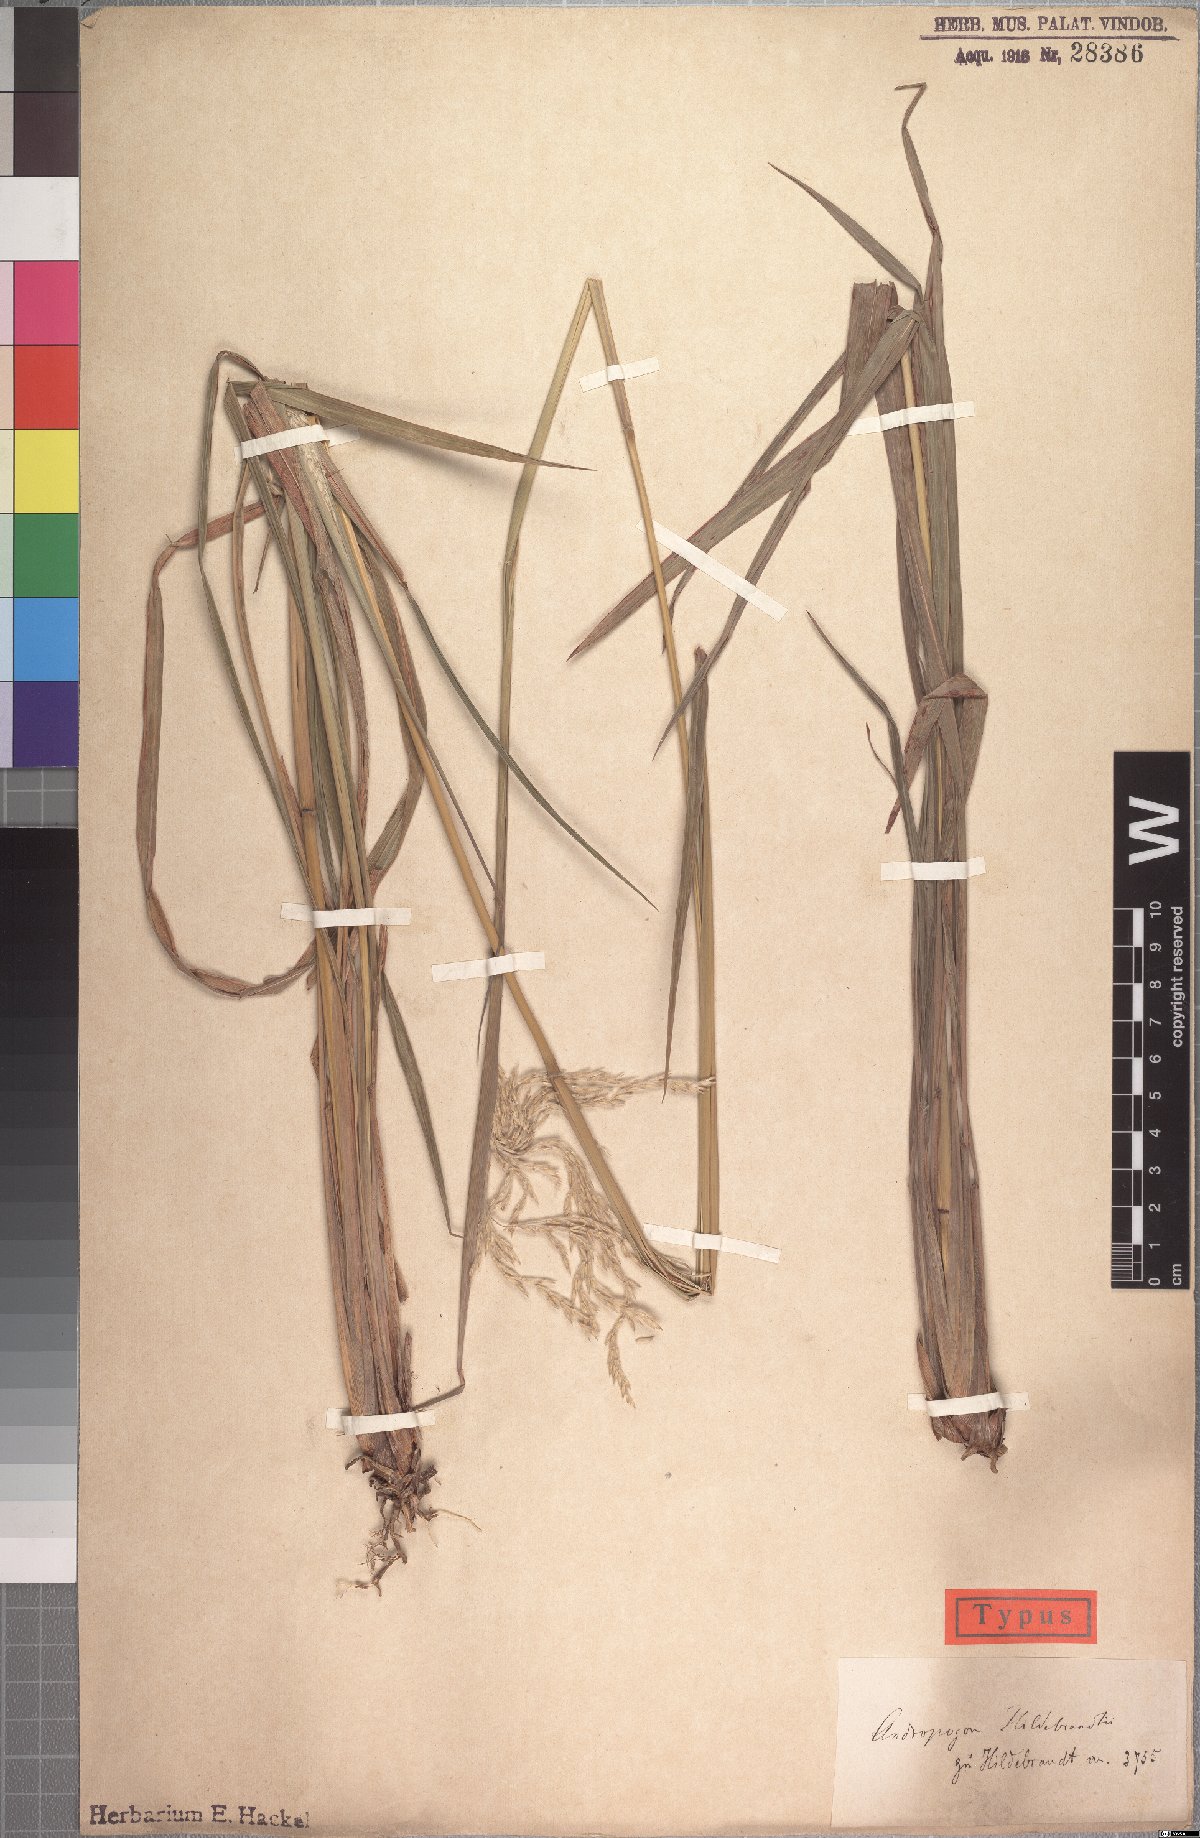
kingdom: Plantae
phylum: Tracheophyta
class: Liliopsida
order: Poales
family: Poaceae
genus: Lasiorhachis
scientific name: Lasiorhachis hildebrandtii
